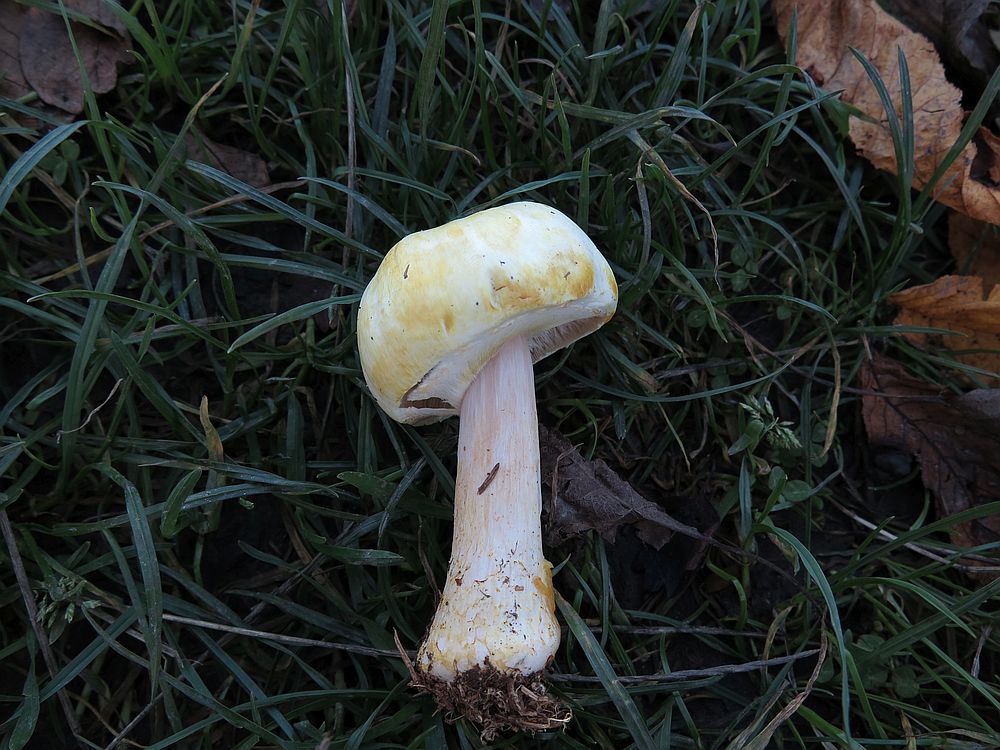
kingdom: Fungi
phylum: Basidiomycota
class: Agaricomycetes
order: Agaricales
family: Agaricaceae
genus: Agaricus
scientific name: Agaricus sylvicola
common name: gulhvid champignon
